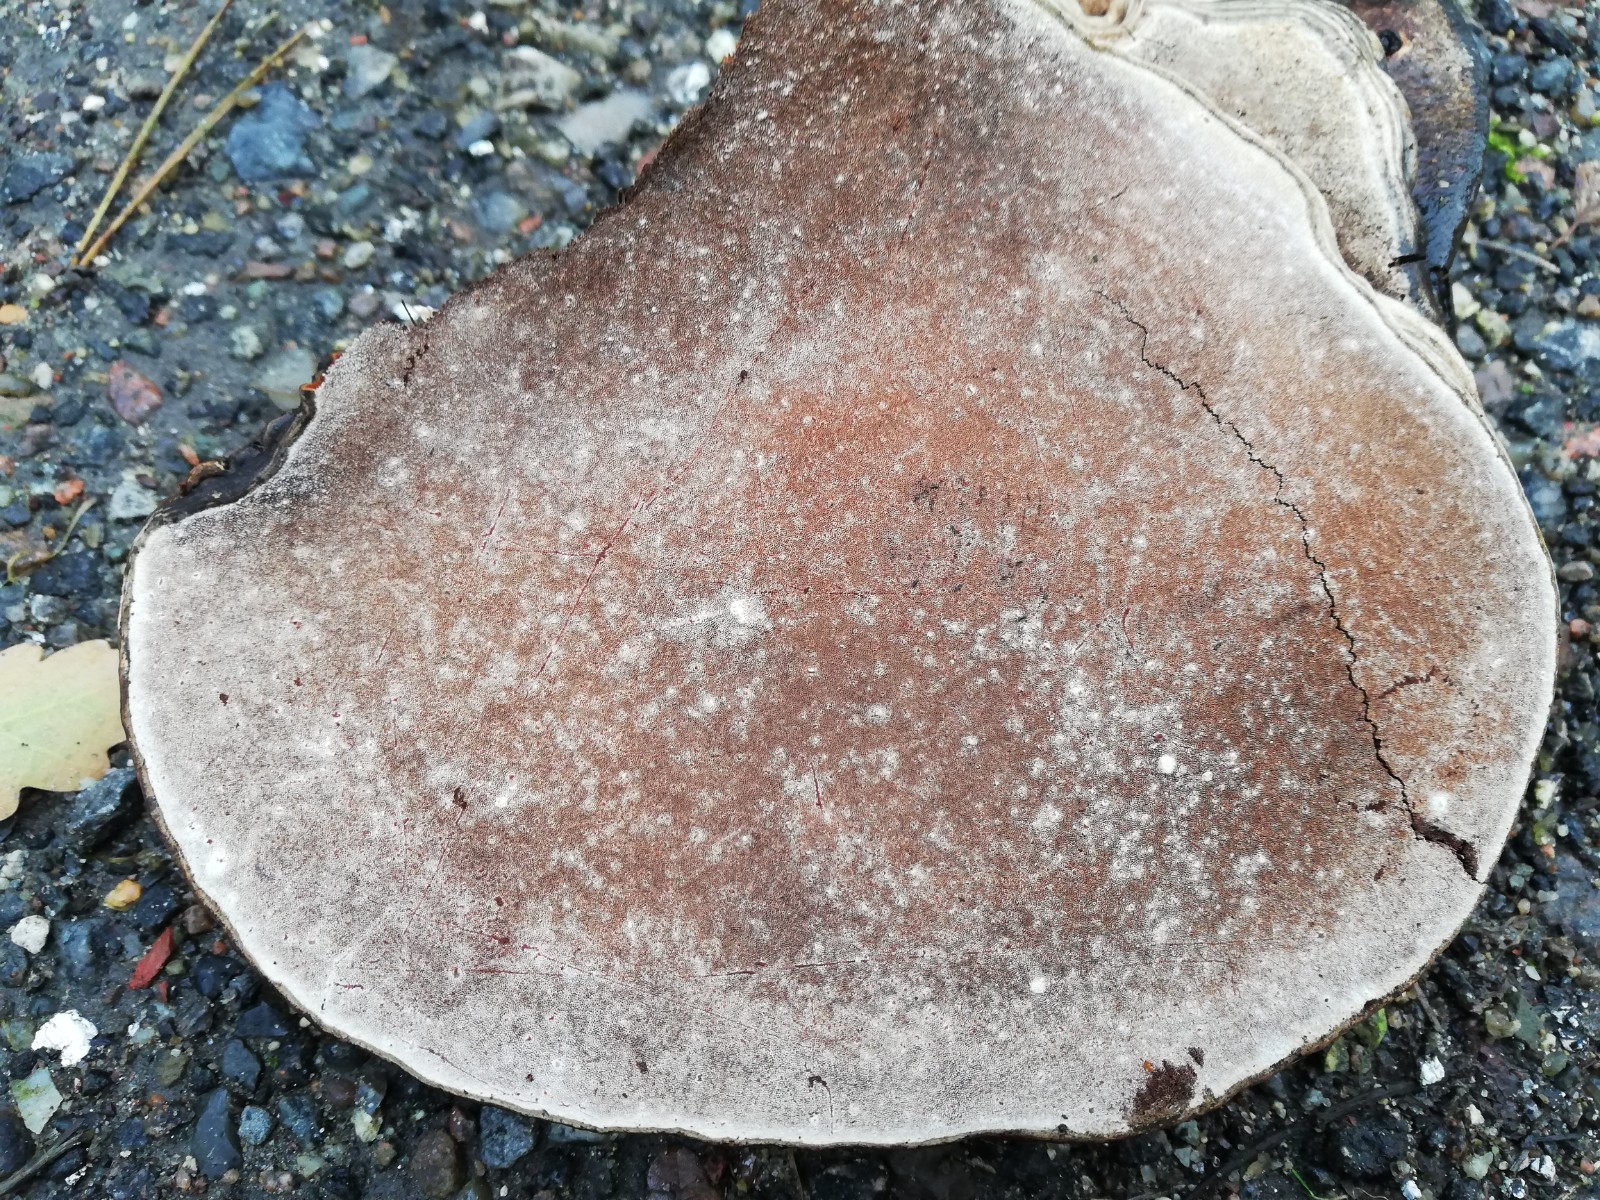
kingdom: Fungi
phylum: Basidiomycota
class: Agaricomycetes
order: Polyporales
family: Polyporaceae
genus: Ganoderma
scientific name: Ganoderma applanatum
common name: flad lakporesvamp
